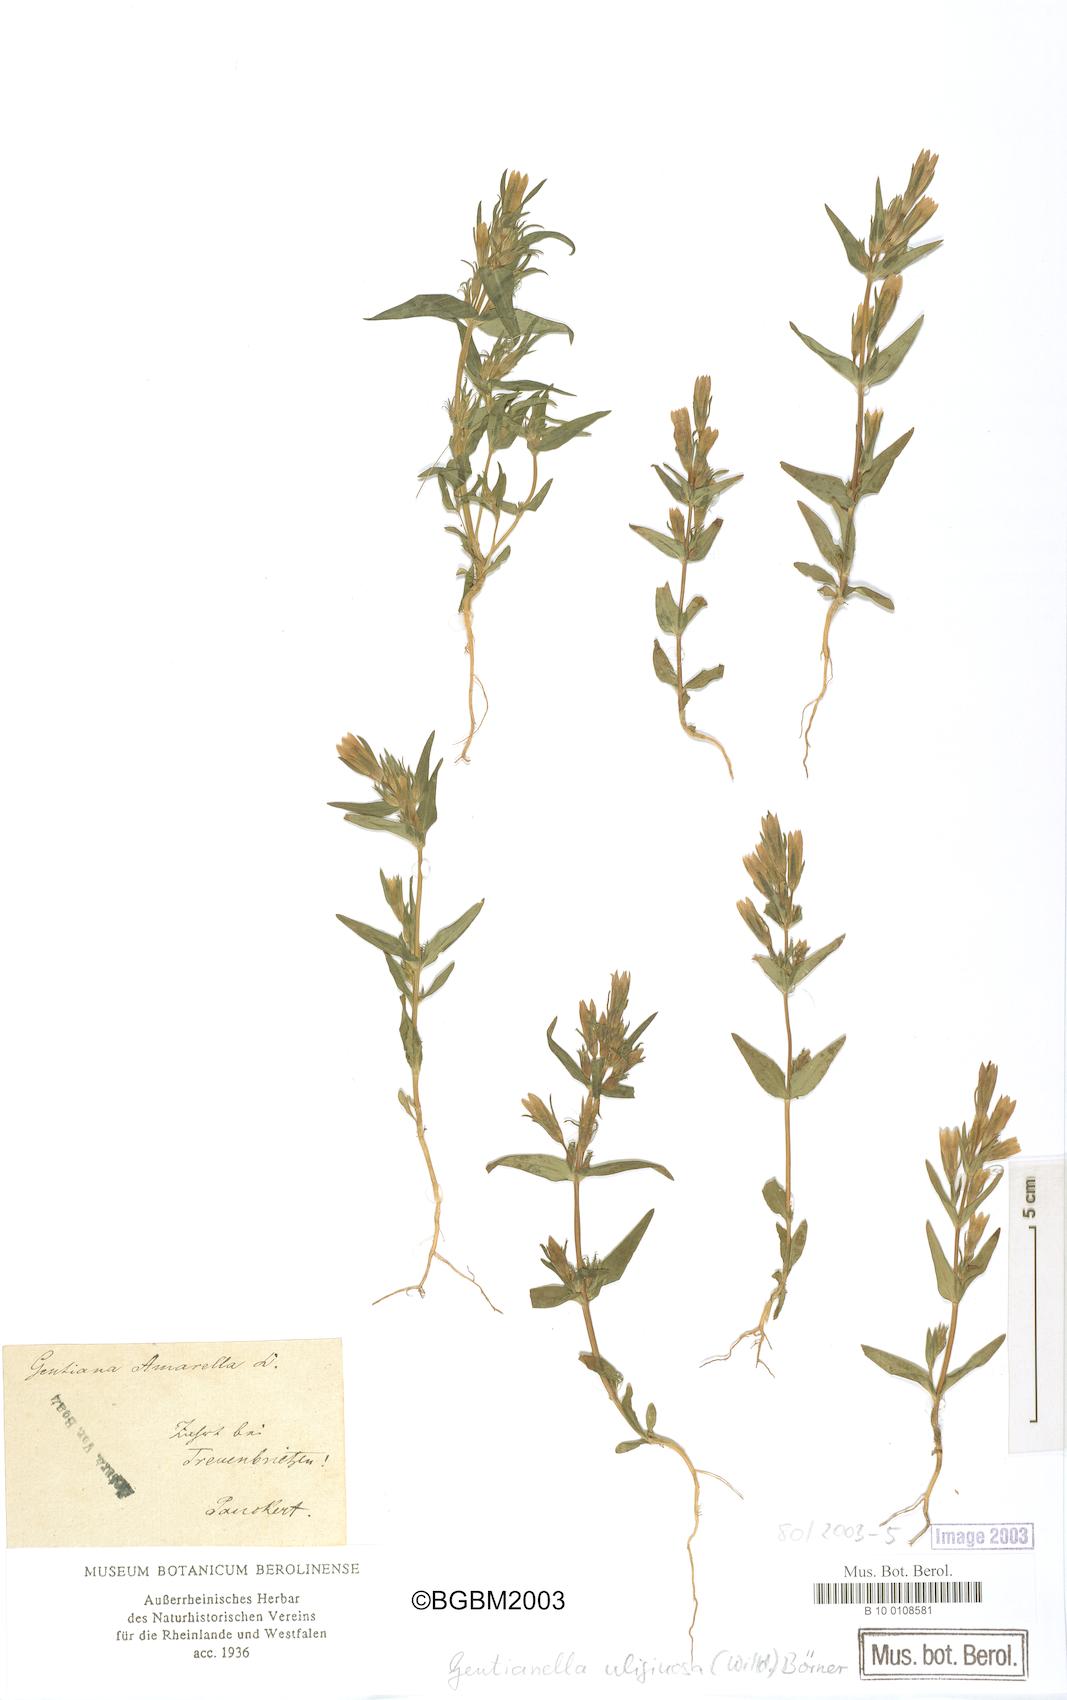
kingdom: Plantae
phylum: Tracheophyta
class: Magnoliopsida
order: Gentianales
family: Gentianaceae
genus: Gentianella
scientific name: Gentianella uliginosa
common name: Dune gentian
